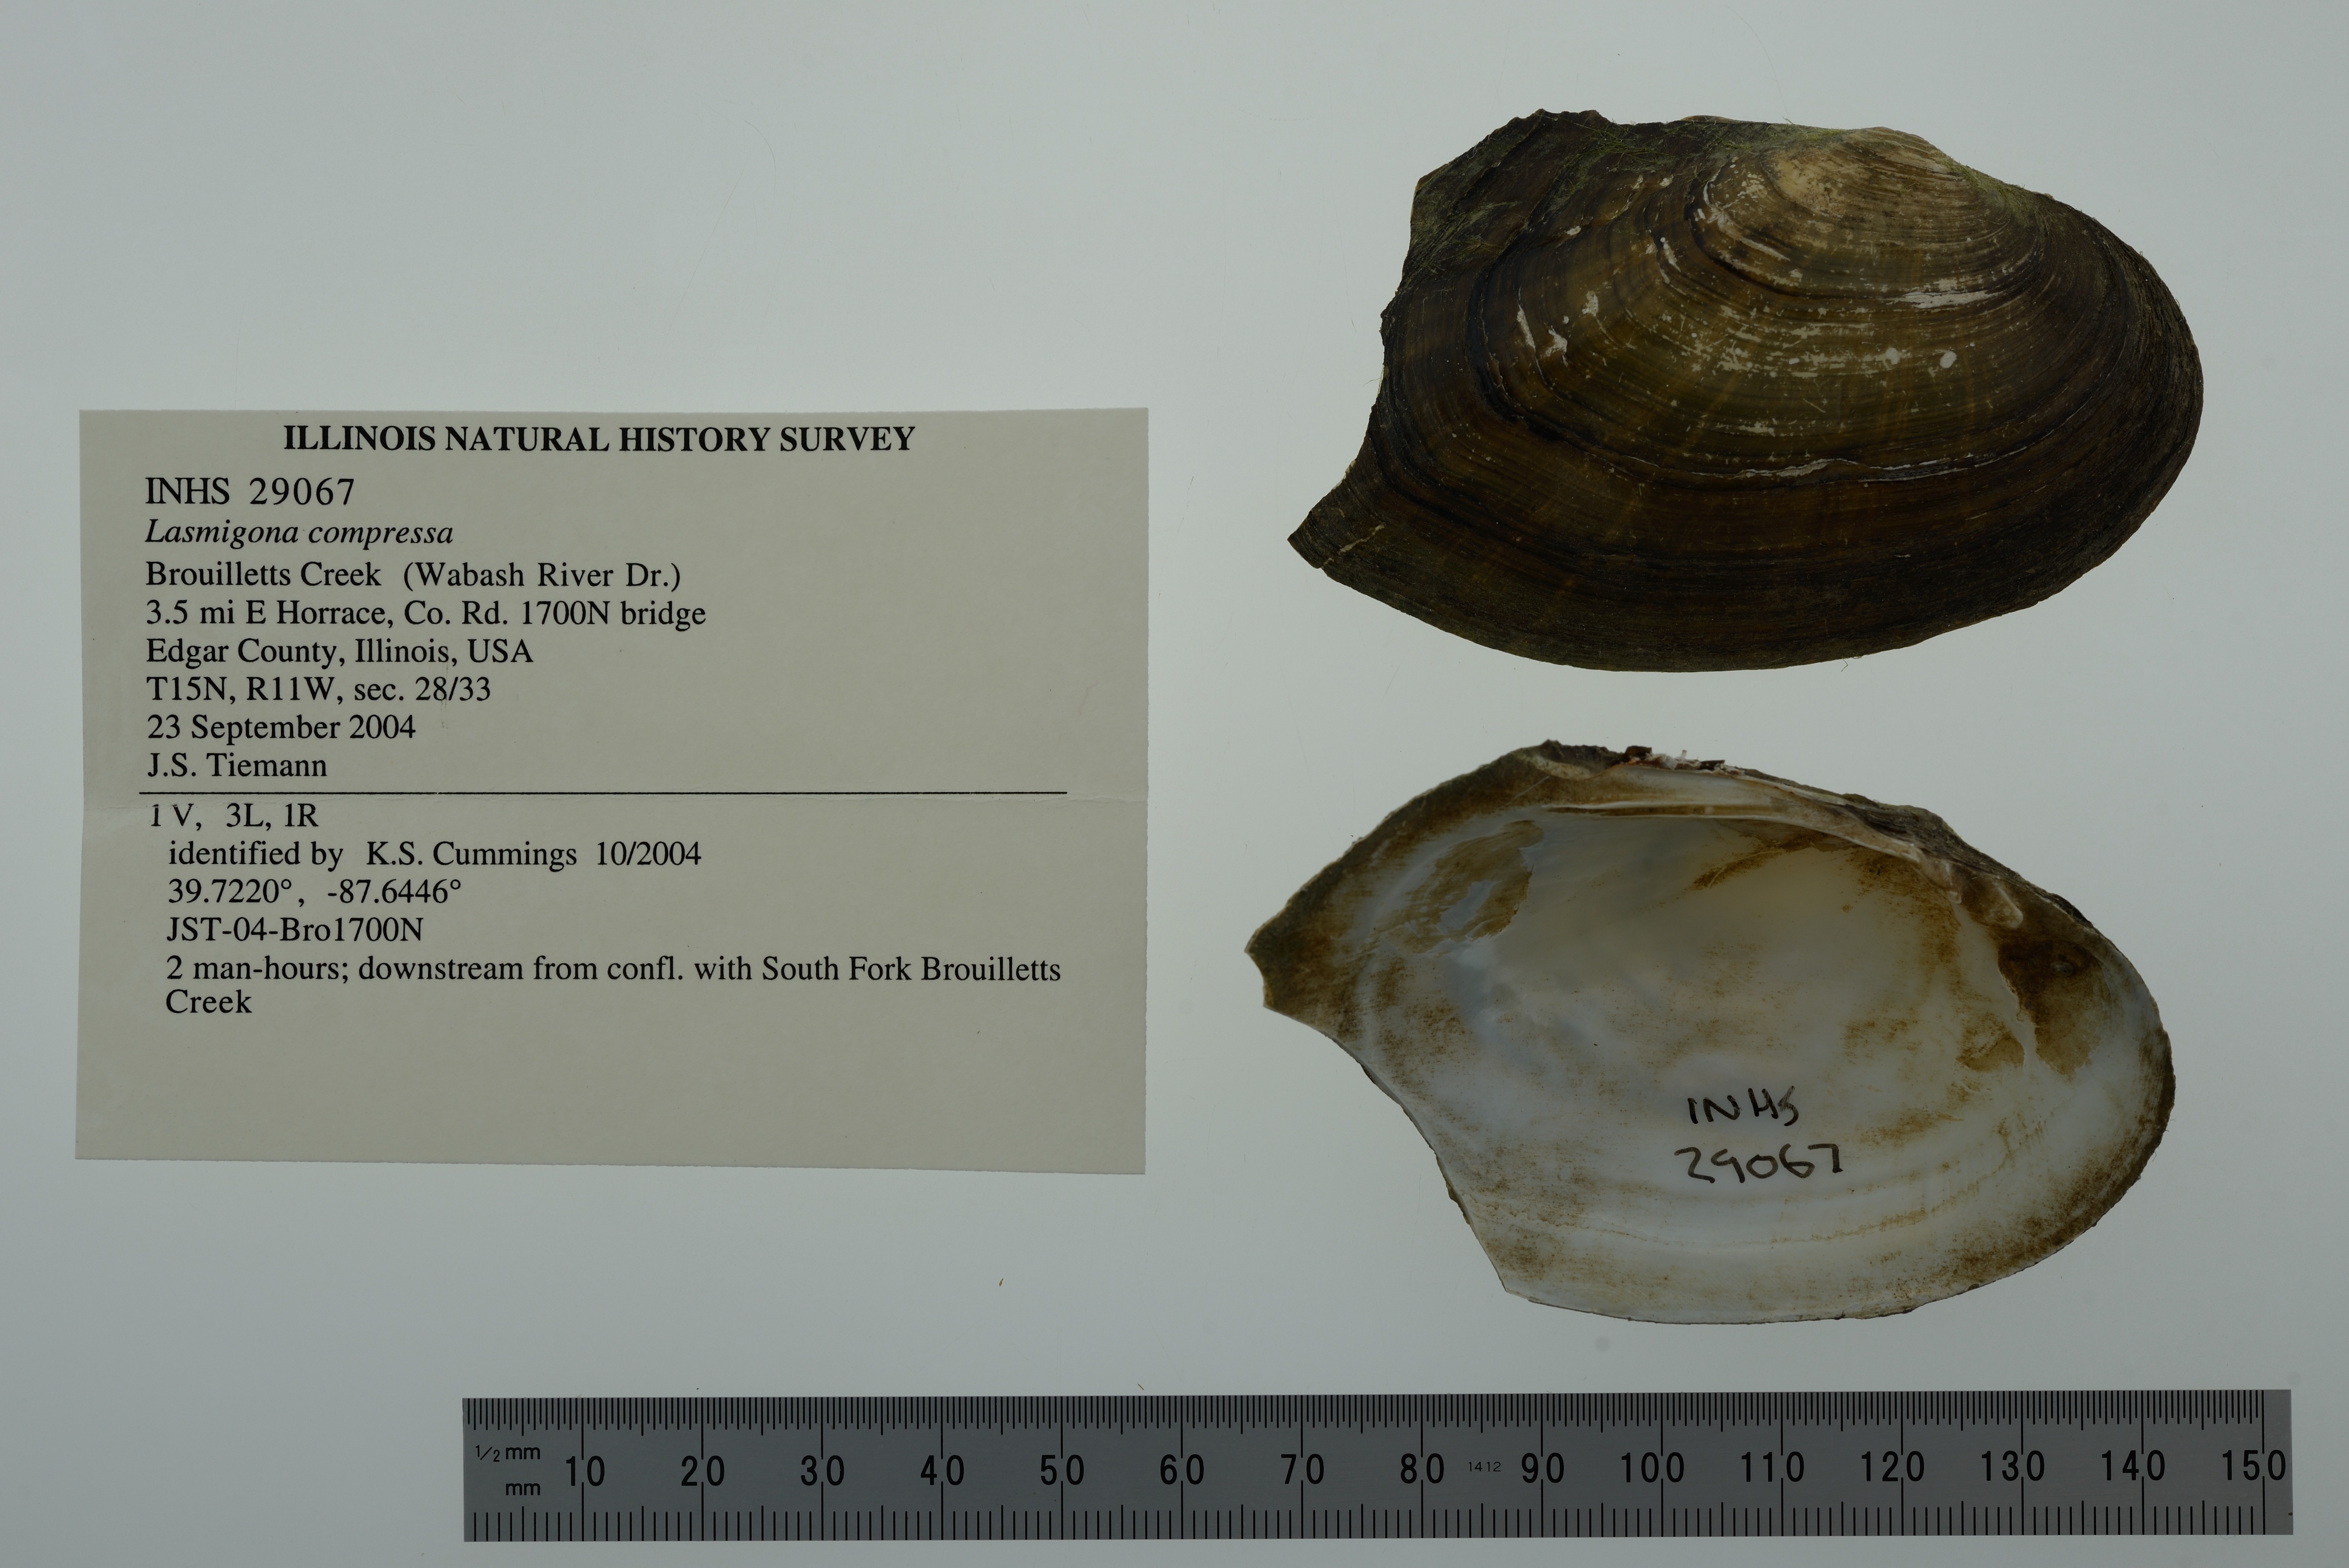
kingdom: Animalia
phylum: Mollusca
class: Bivalvia
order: Unionida
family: Unionidae
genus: Lasmigona
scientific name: Lasmigona compressa
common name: Creek heelsplitter
